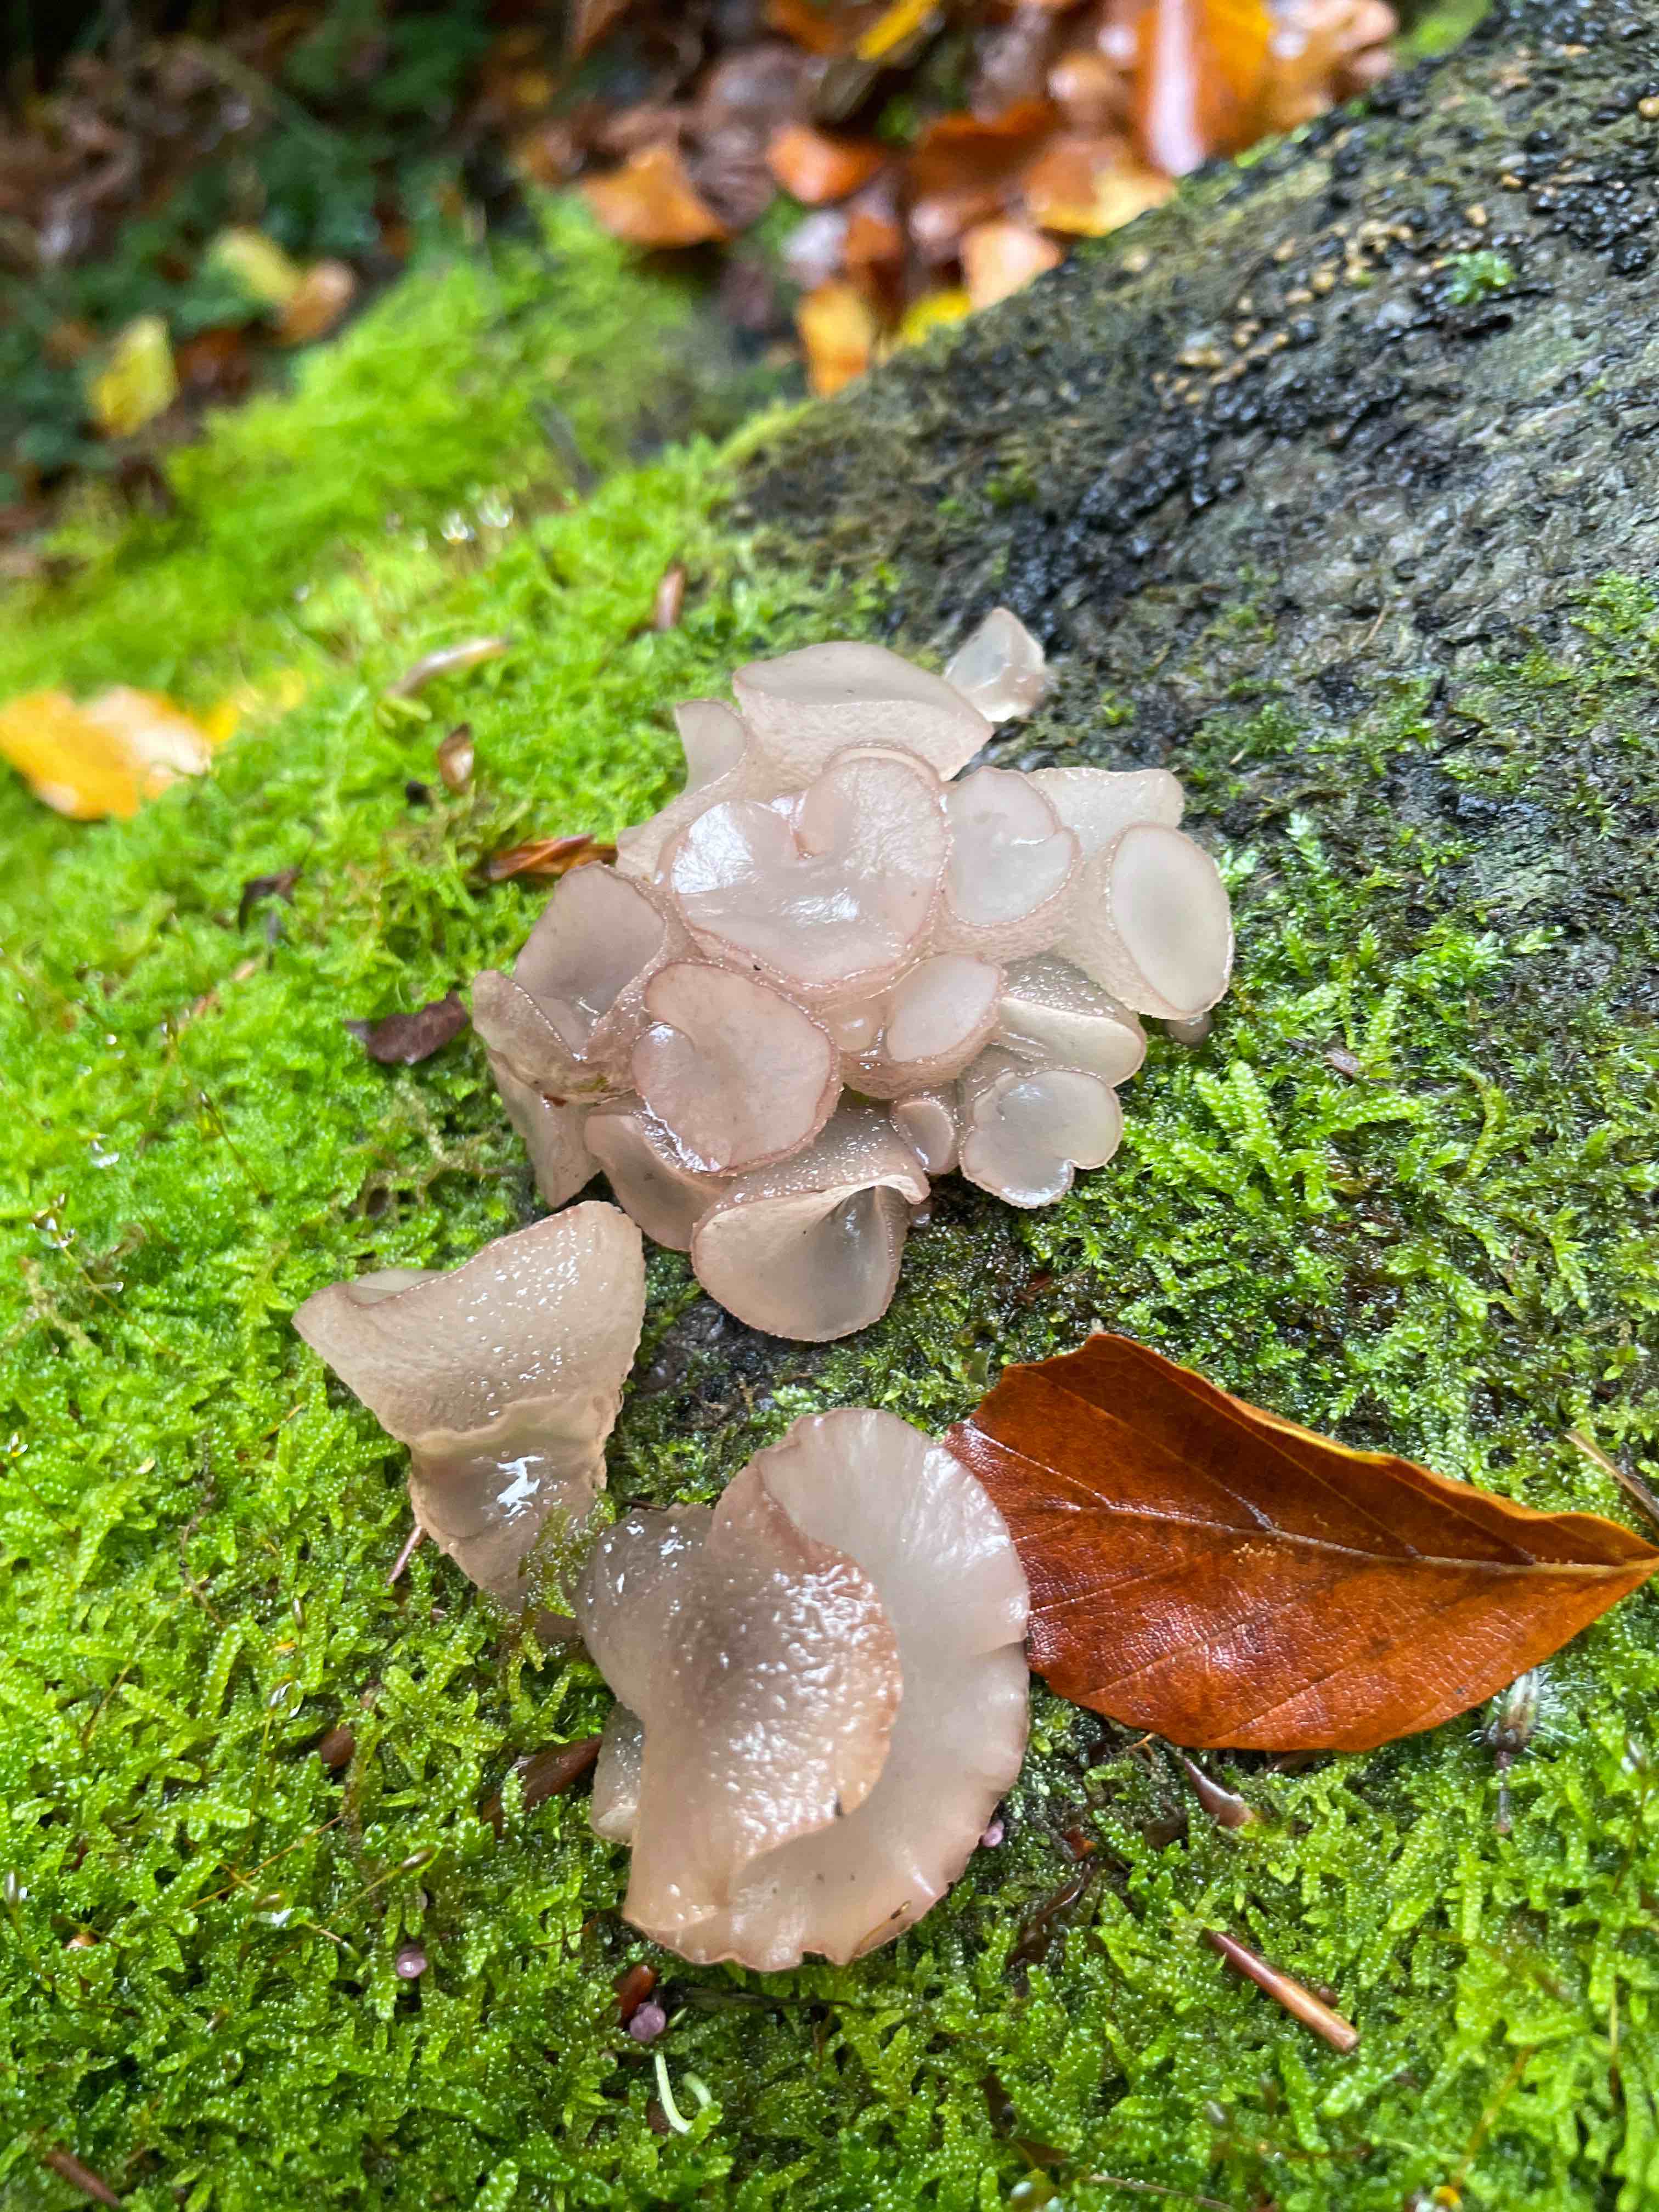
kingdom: Fungi
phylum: Ascomycota
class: Leotiomycetes
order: Helotiales
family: Gelatinodiscaceae
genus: Neobulgaria
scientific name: Neobulgaria pura
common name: bleg bævreskive
